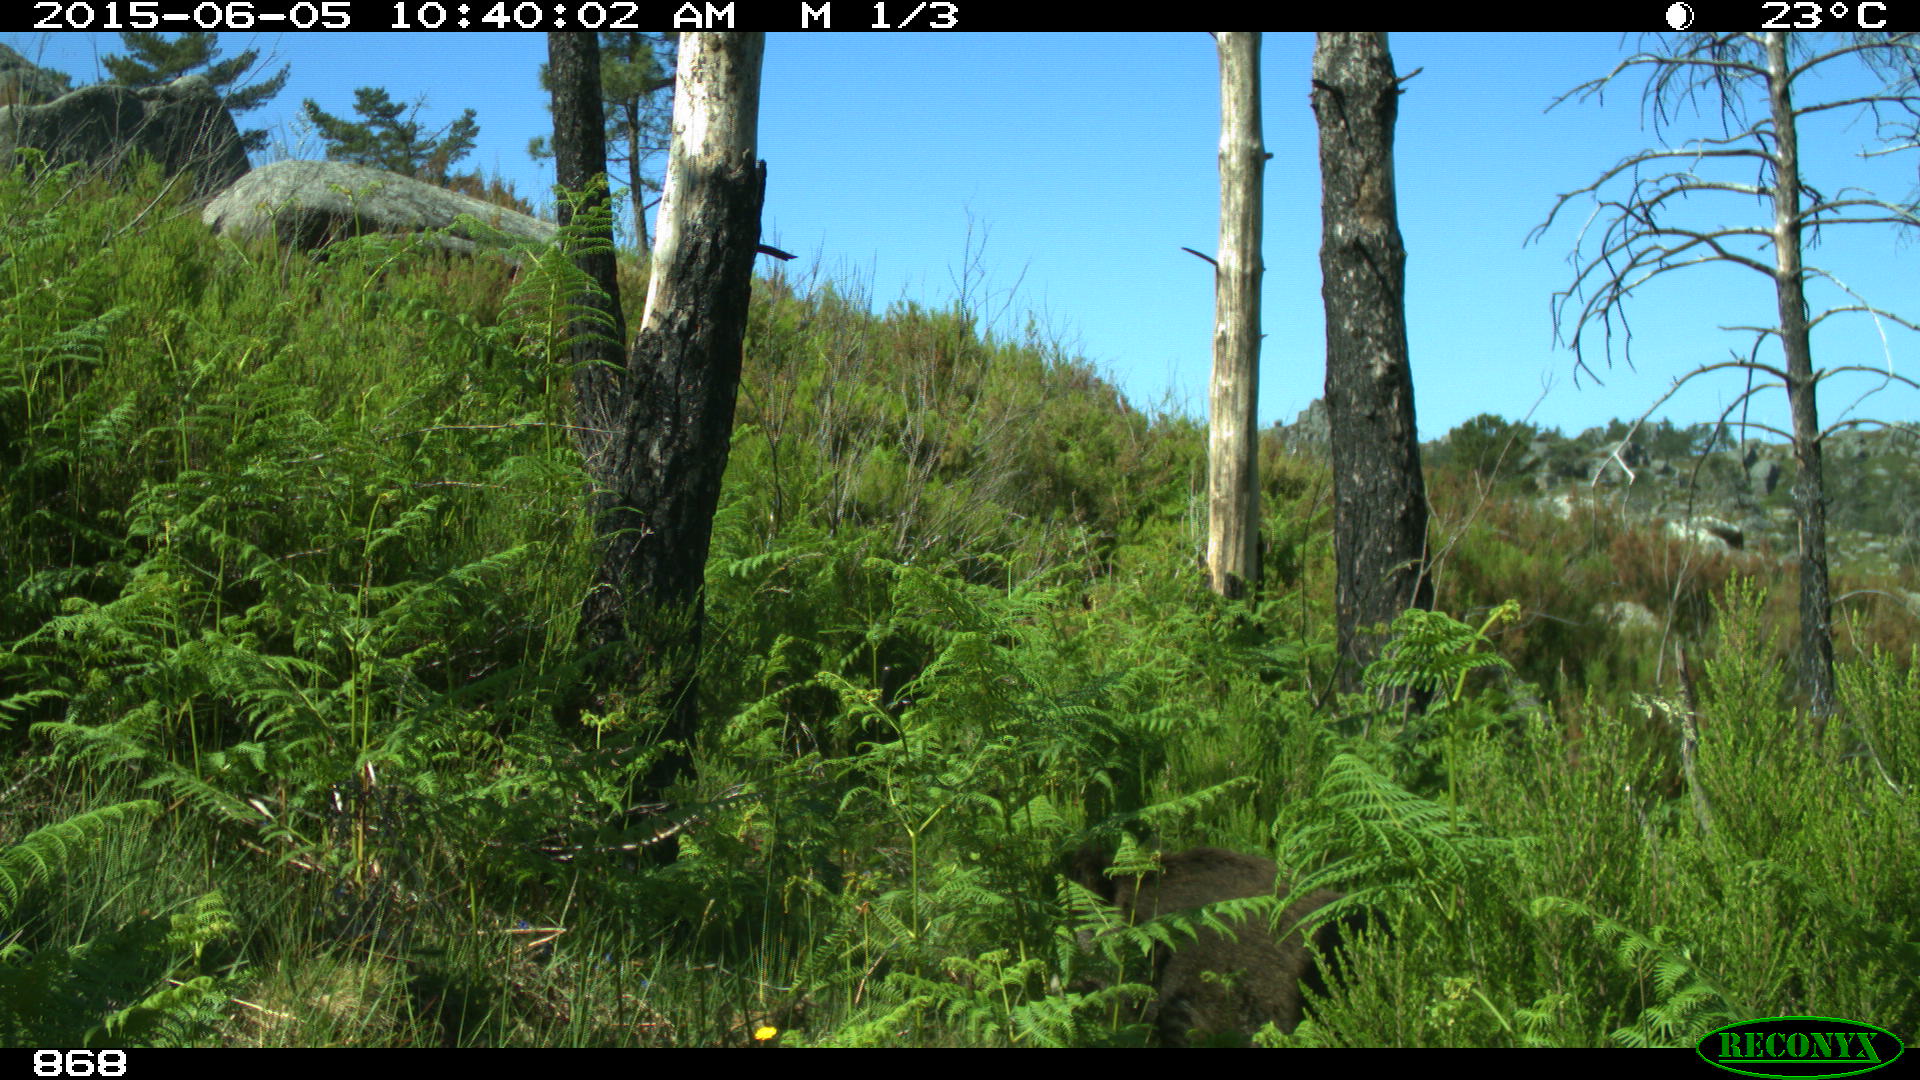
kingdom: Animalia
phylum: Chordata
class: Mammalia
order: Artiodactyla
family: Suidae
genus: Sus
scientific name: Sus scrofa
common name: Wild boar
